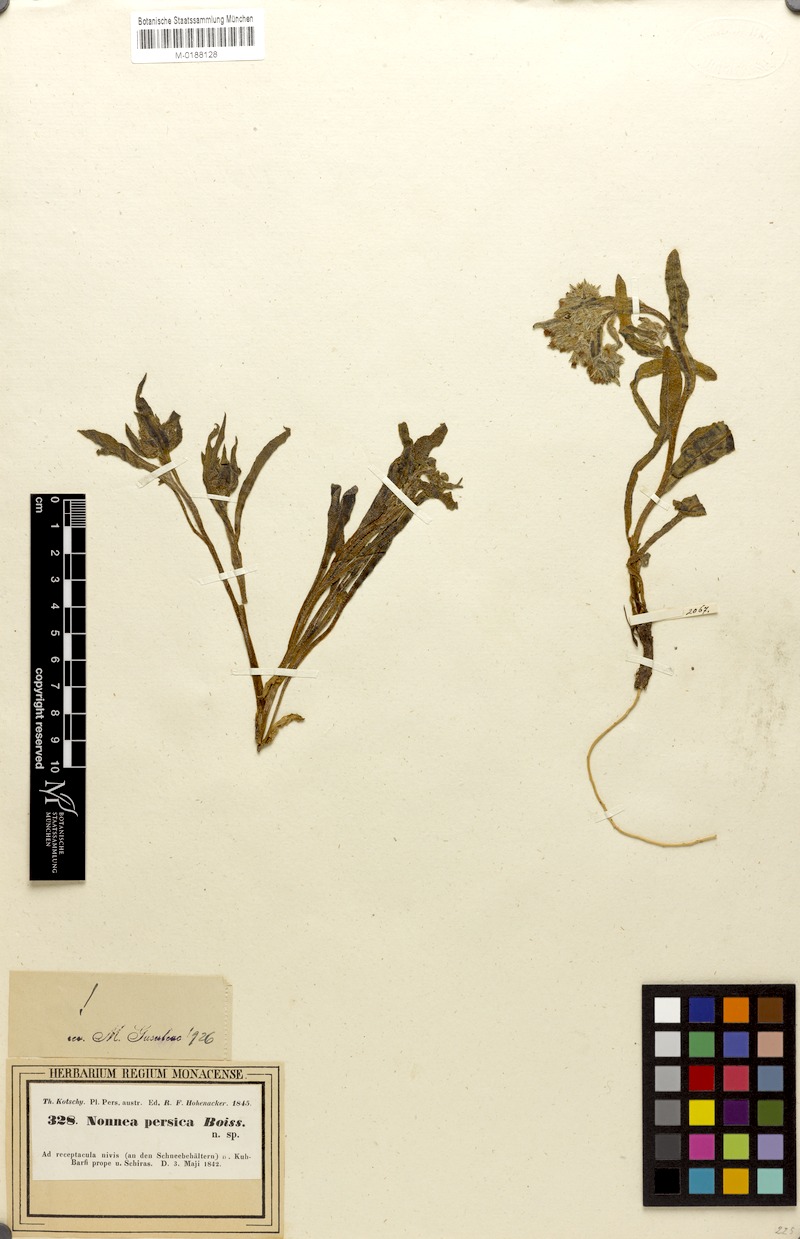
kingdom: Plantae
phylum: Tracheophyta
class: Magnoliopsida
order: Boraginales
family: Boraginaceae
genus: Nonea
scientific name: Nonea persica
